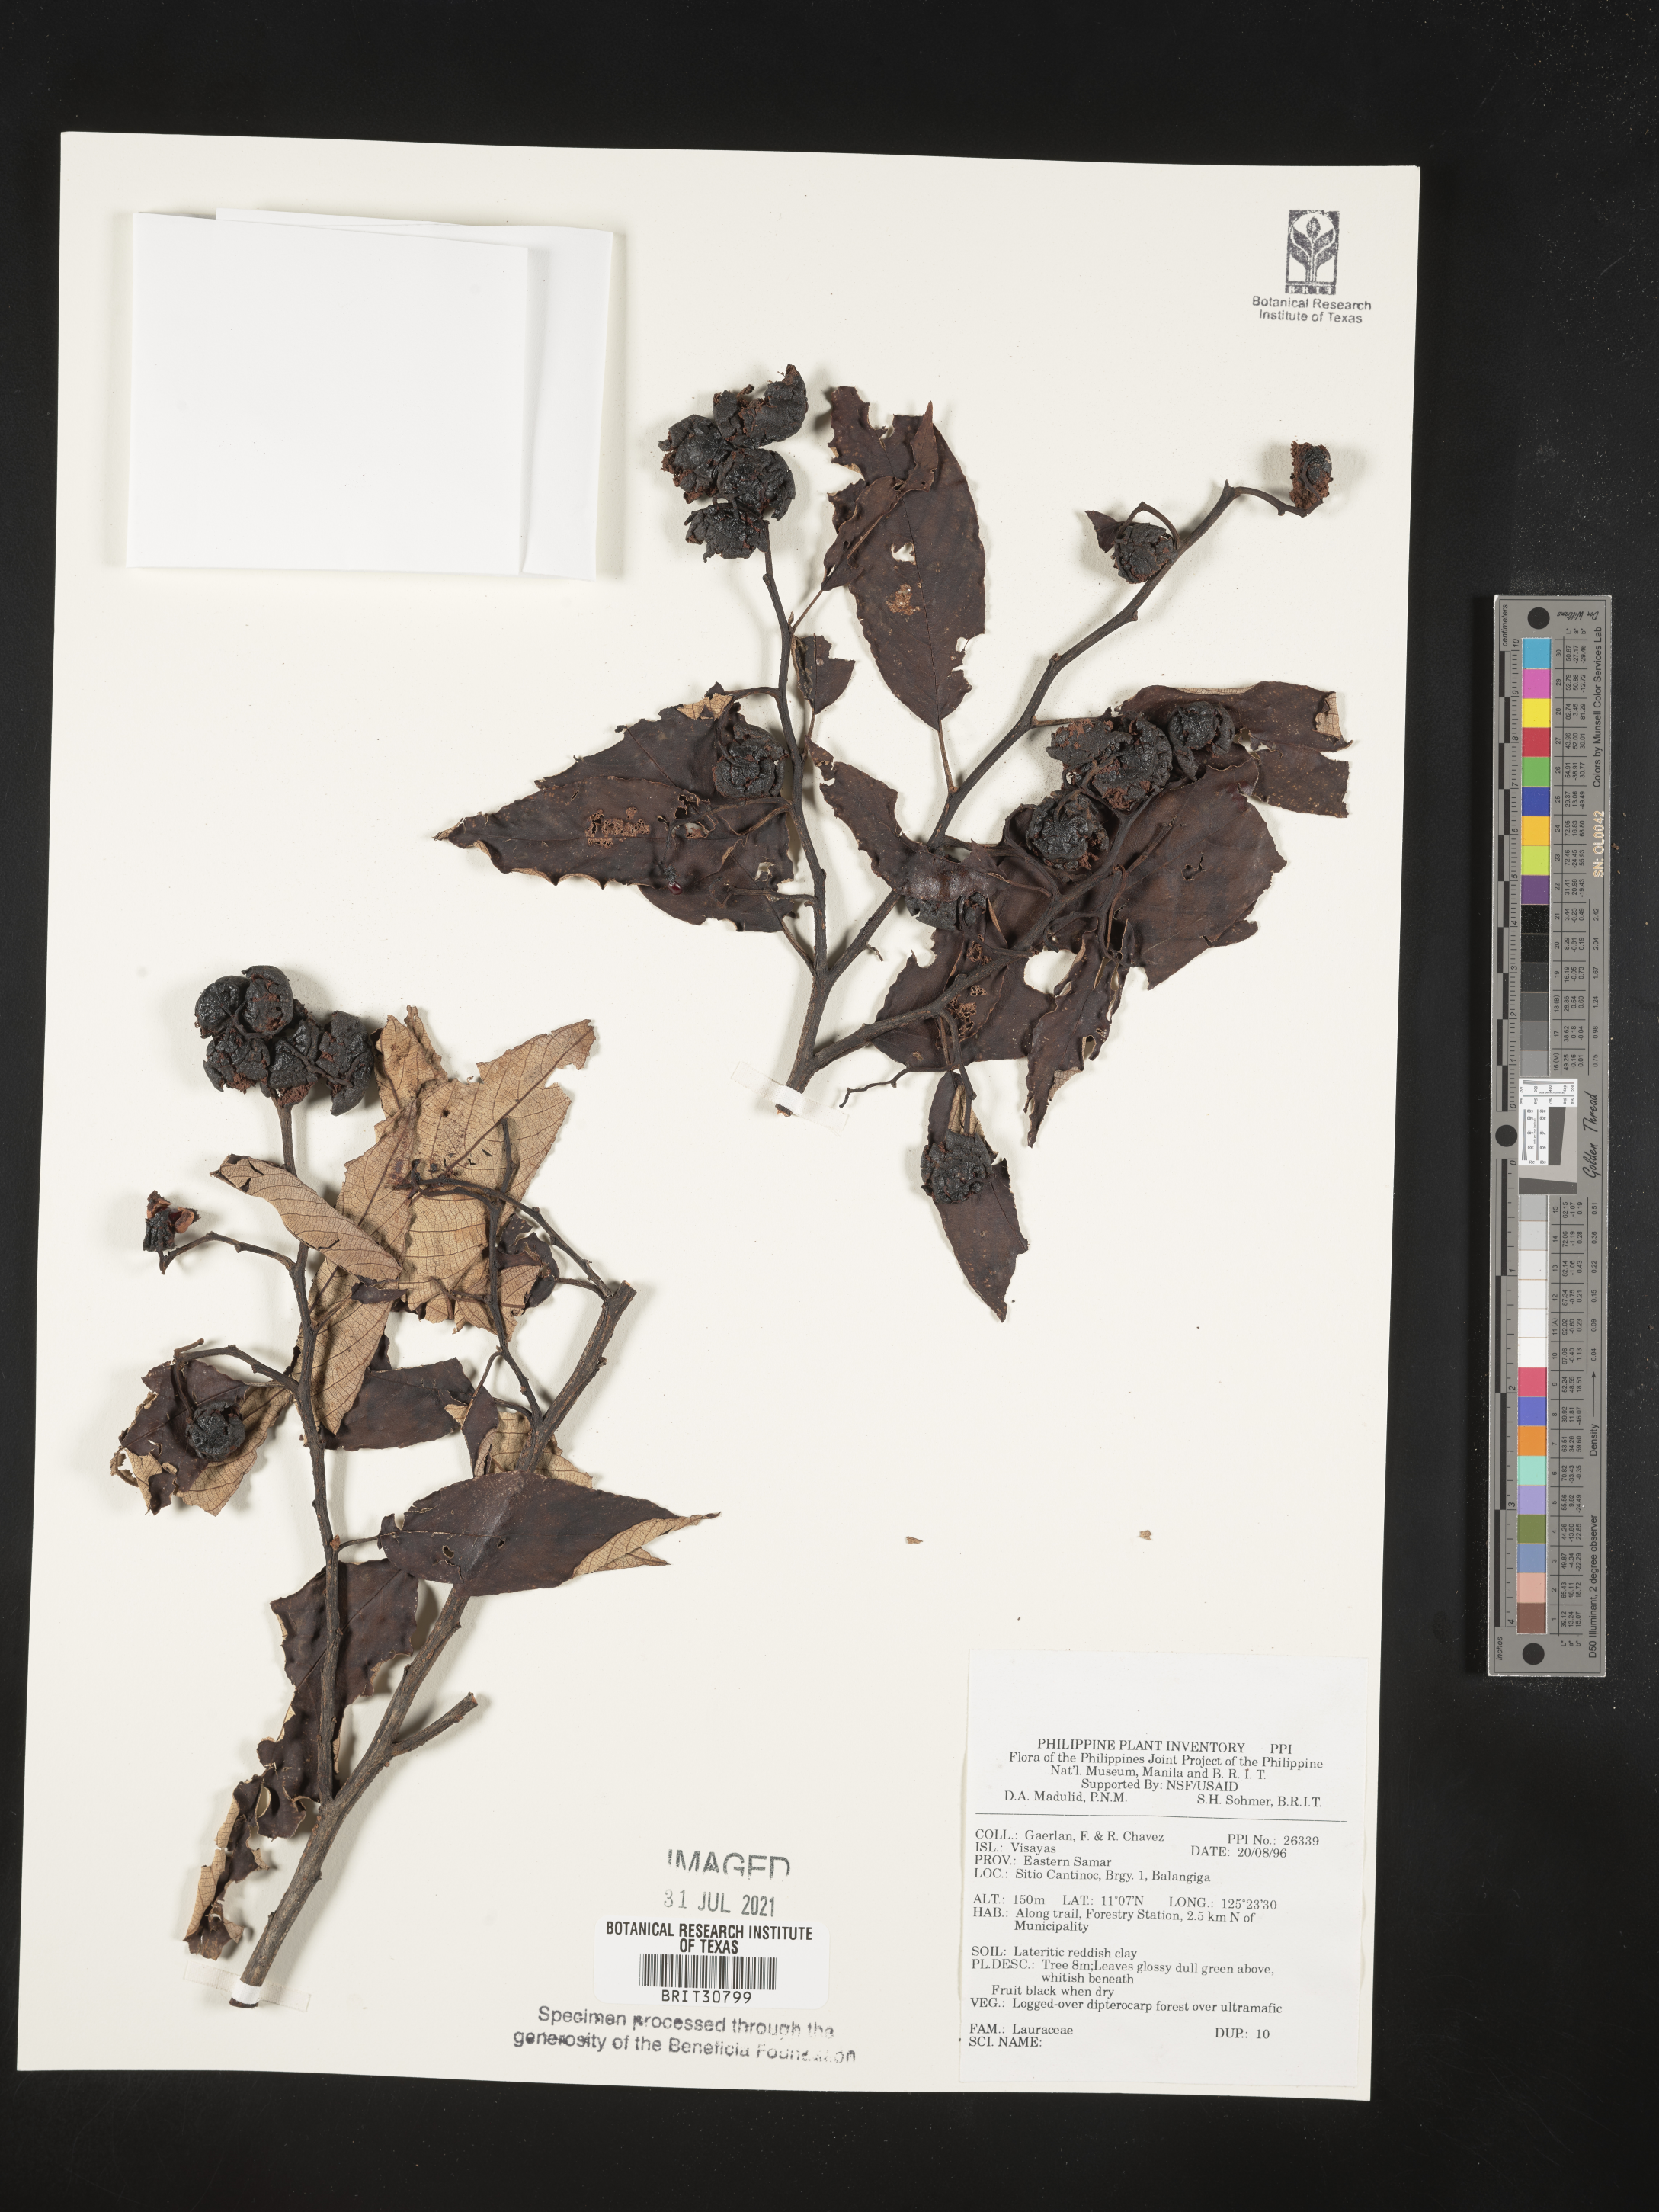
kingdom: Plantae
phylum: Tracheophyta
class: Magnoliopsida
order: Laurales
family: Lauraceae
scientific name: Lauraceae
